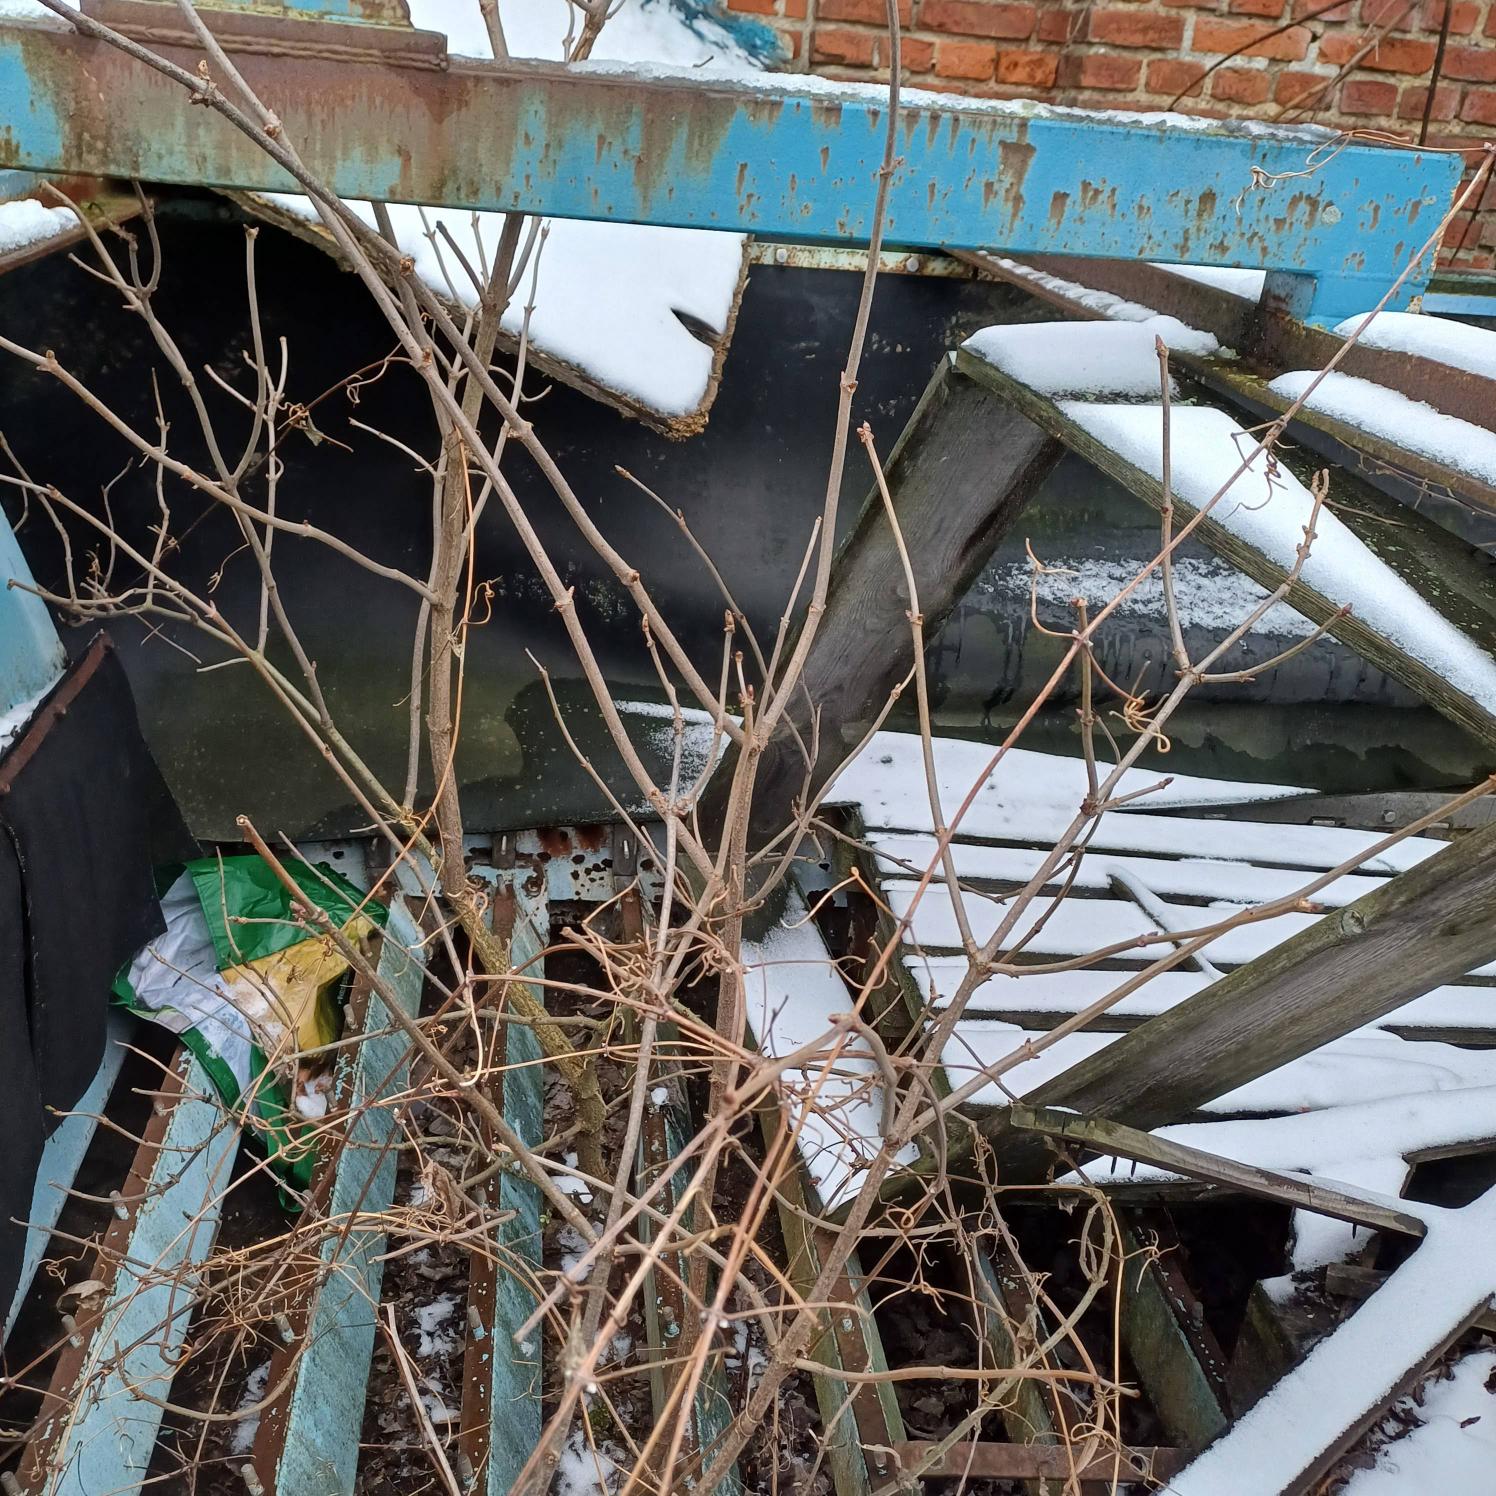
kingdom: Plantae
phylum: Tracheophyta
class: Magnoliopsida
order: Dipsacales
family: Viburnaceae
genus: Sambucus
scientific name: Sambucus nigra
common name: Almindelig hyld
